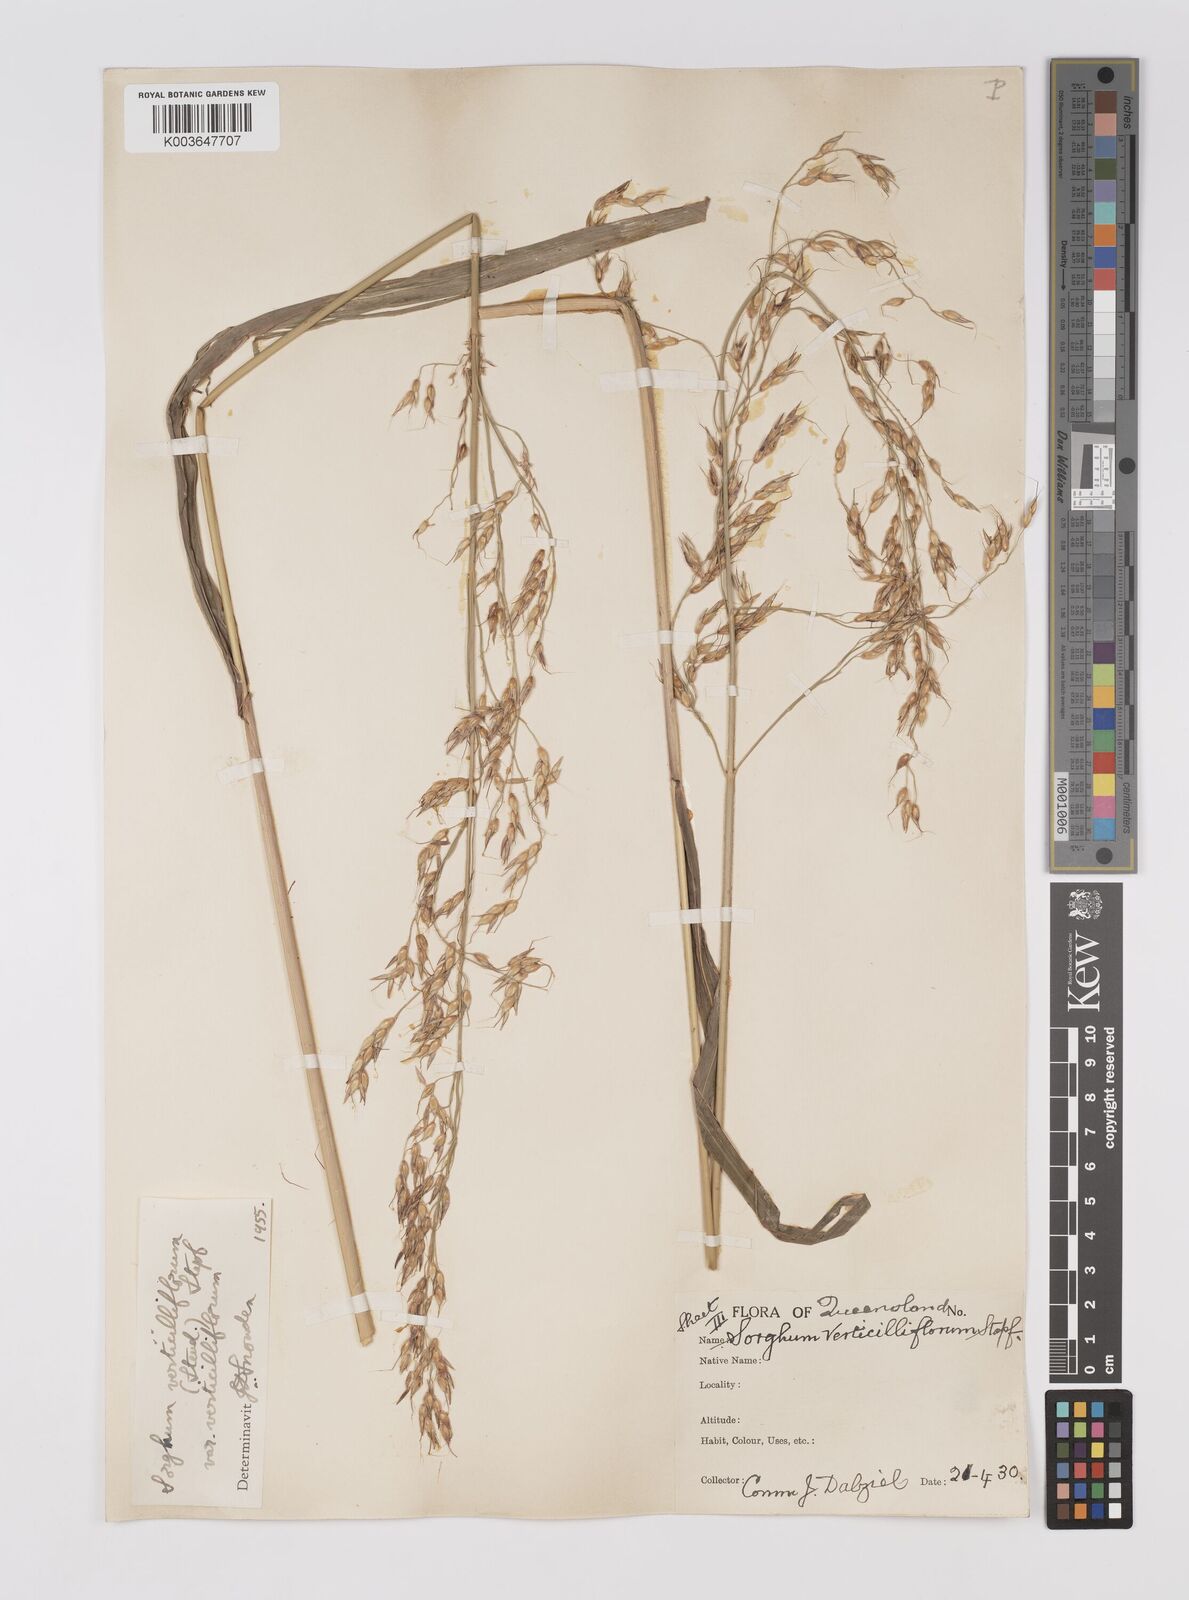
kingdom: Plantae
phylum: Tracheophyta
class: Liliopsida
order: Poales
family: Poaceae
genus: Sorghum
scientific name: Sorghum arundinaceum
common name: Sorghum
